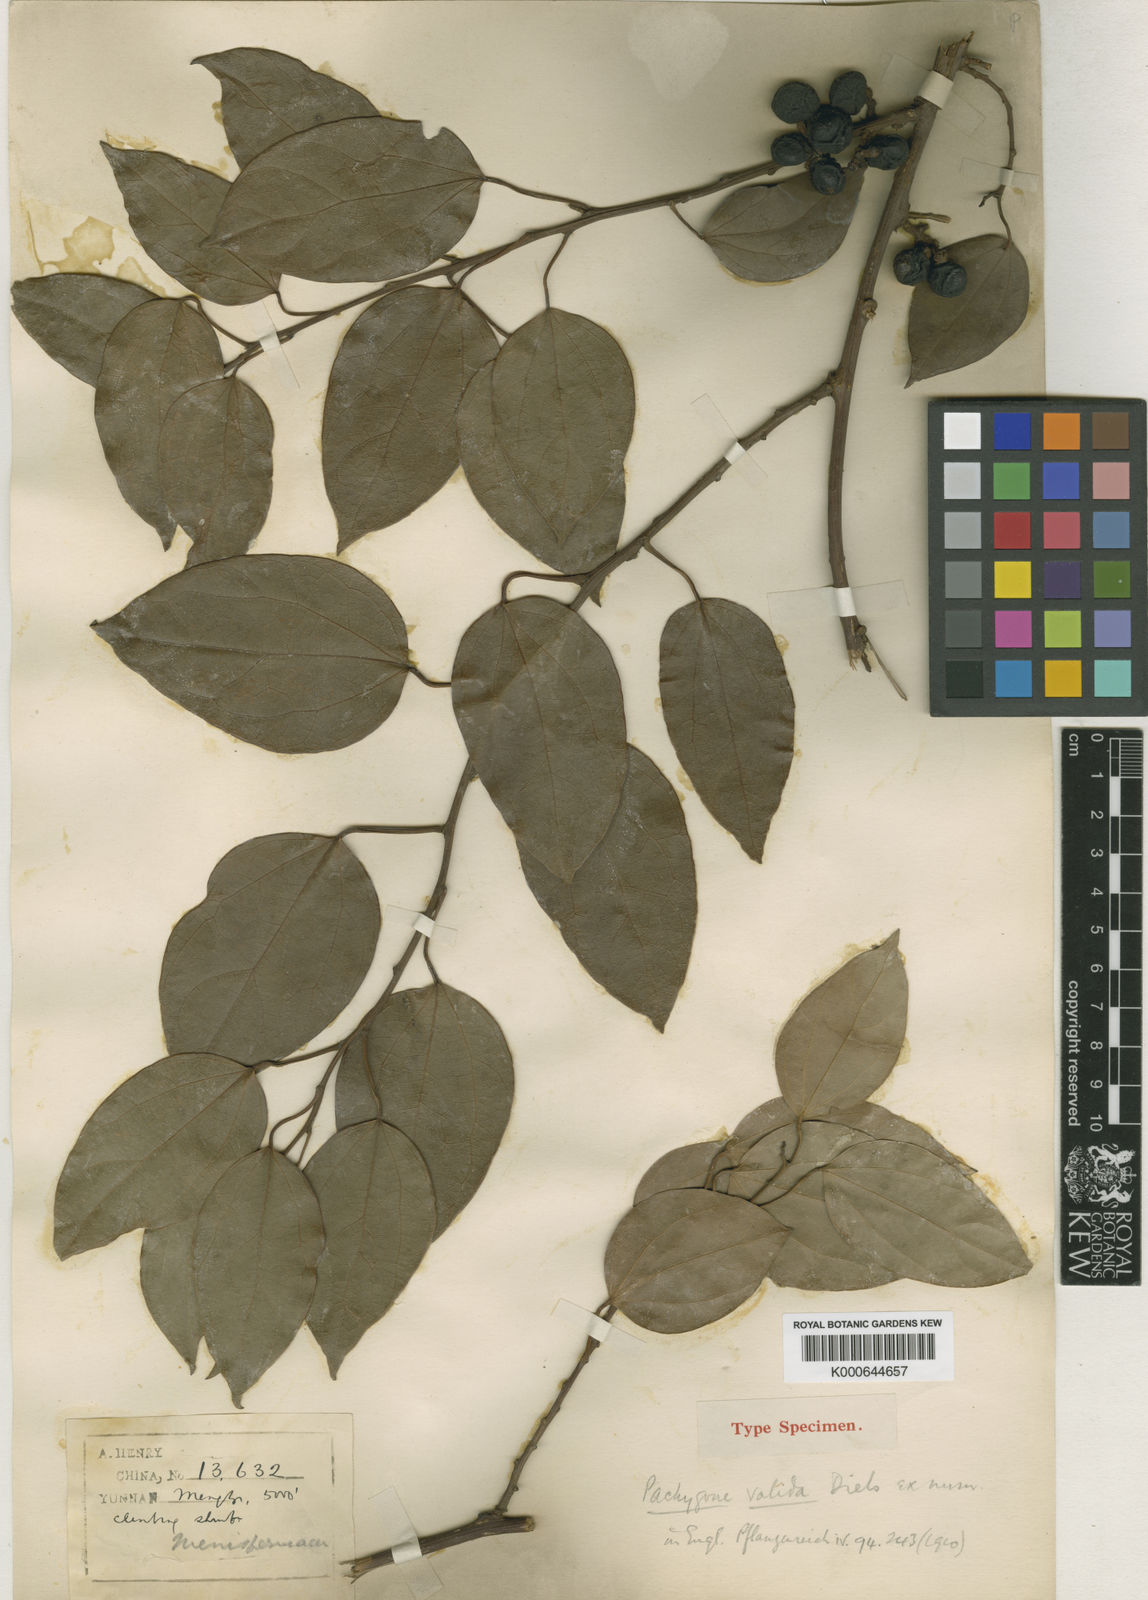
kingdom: Plantae
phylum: Tracheophyta
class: Magnoliopsida
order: Ranunculales
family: Menispermaceae
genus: Pachygone
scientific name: Pachygone valida
